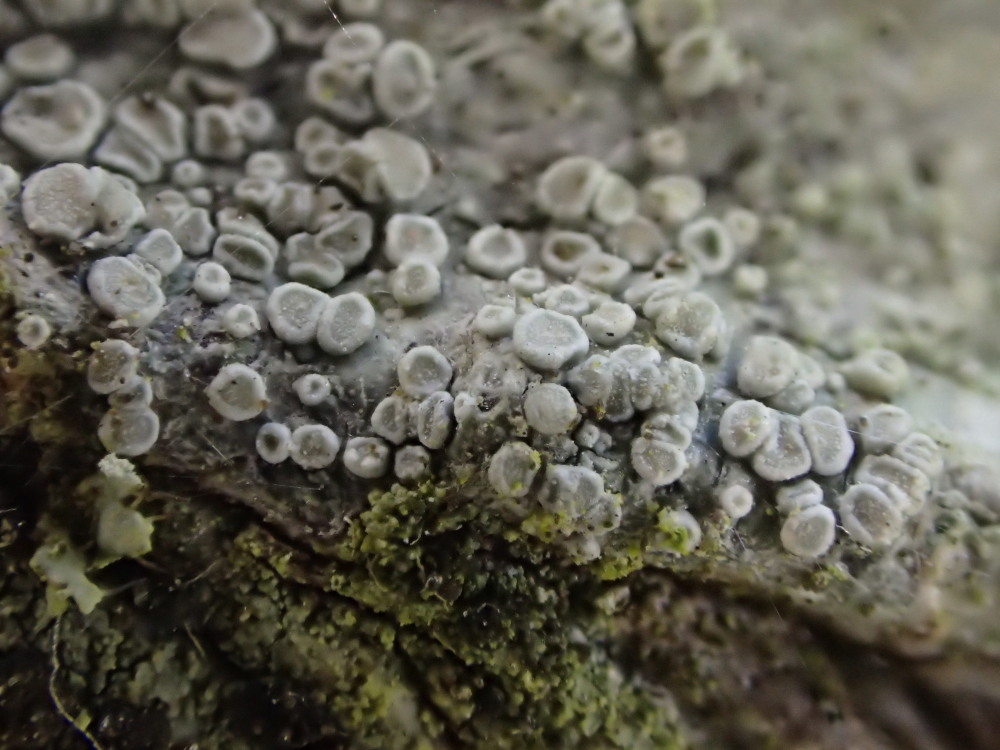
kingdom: Fungi
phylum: Ascomycota
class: Lecanoromycetes
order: Lecanorales
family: Lecanoraceae
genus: Glaucomaria
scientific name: Glaucomaria carpinea
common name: hviddugget kantskivelav
